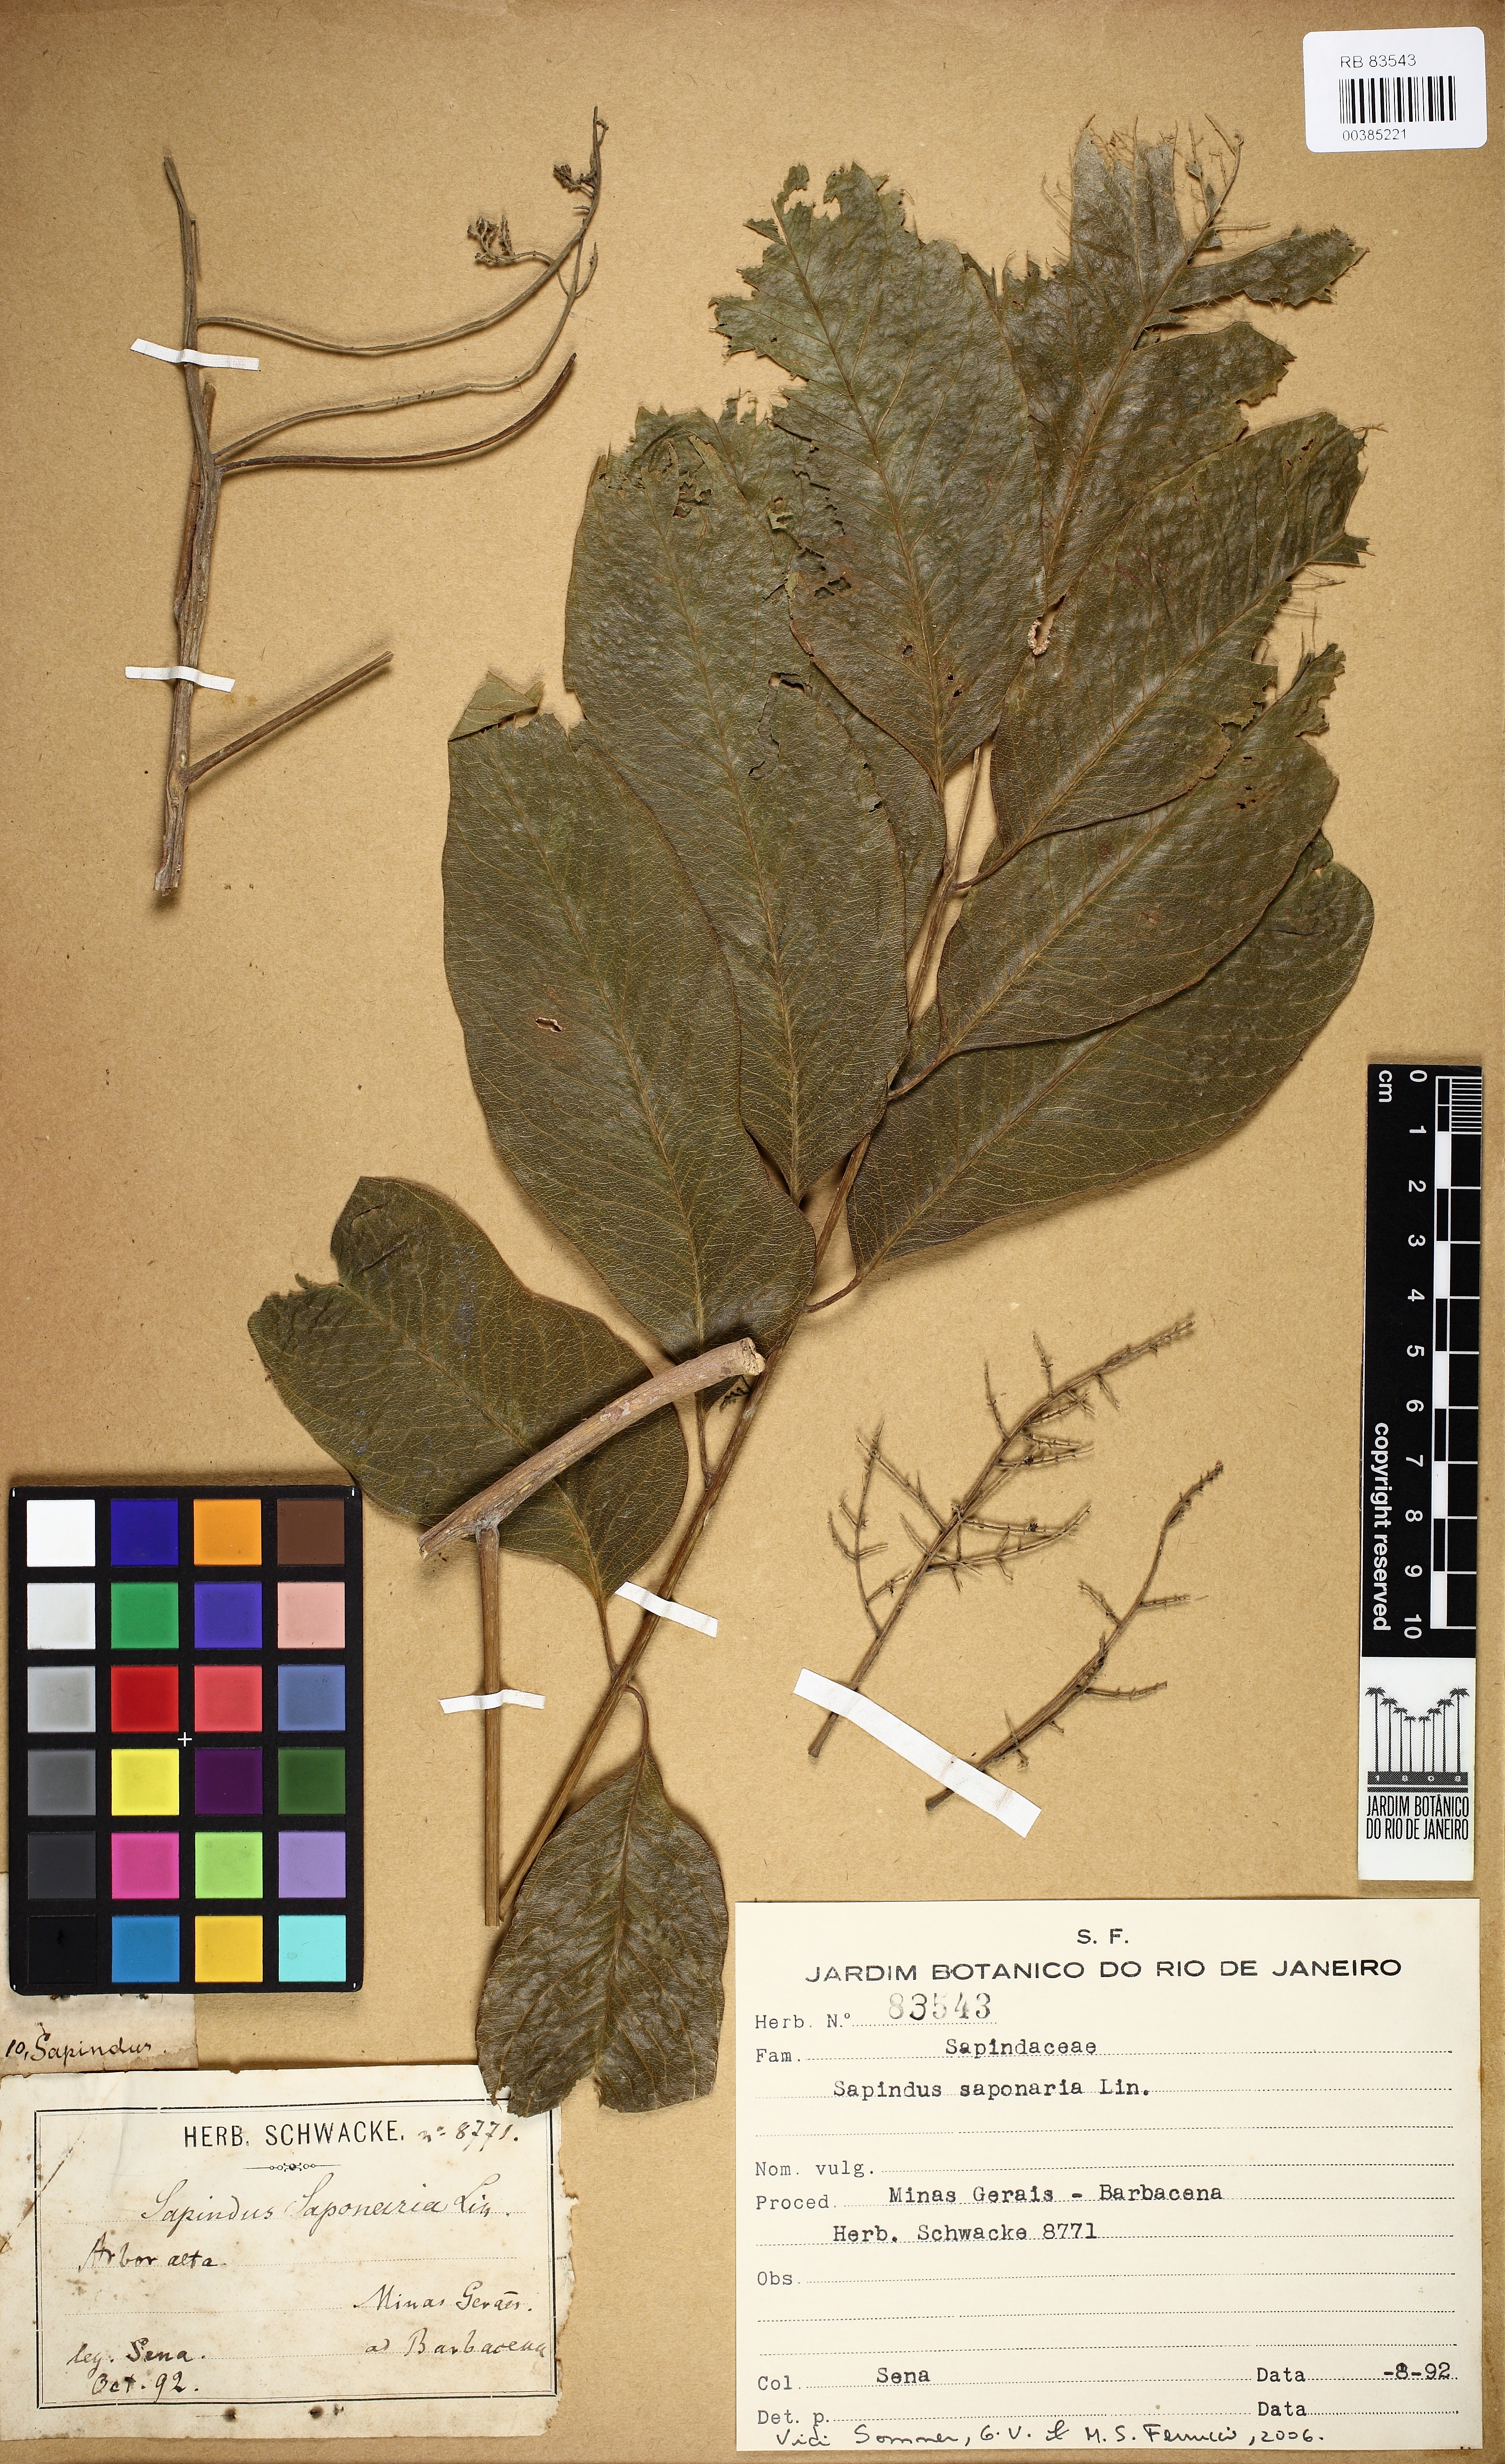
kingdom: Plantae
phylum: Tracheophyta
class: Magnoliopsida
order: Sapindales
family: Sapindaceae
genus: Sapindus
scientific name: Sapindus saponaria
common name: Wingleaf soapberry
